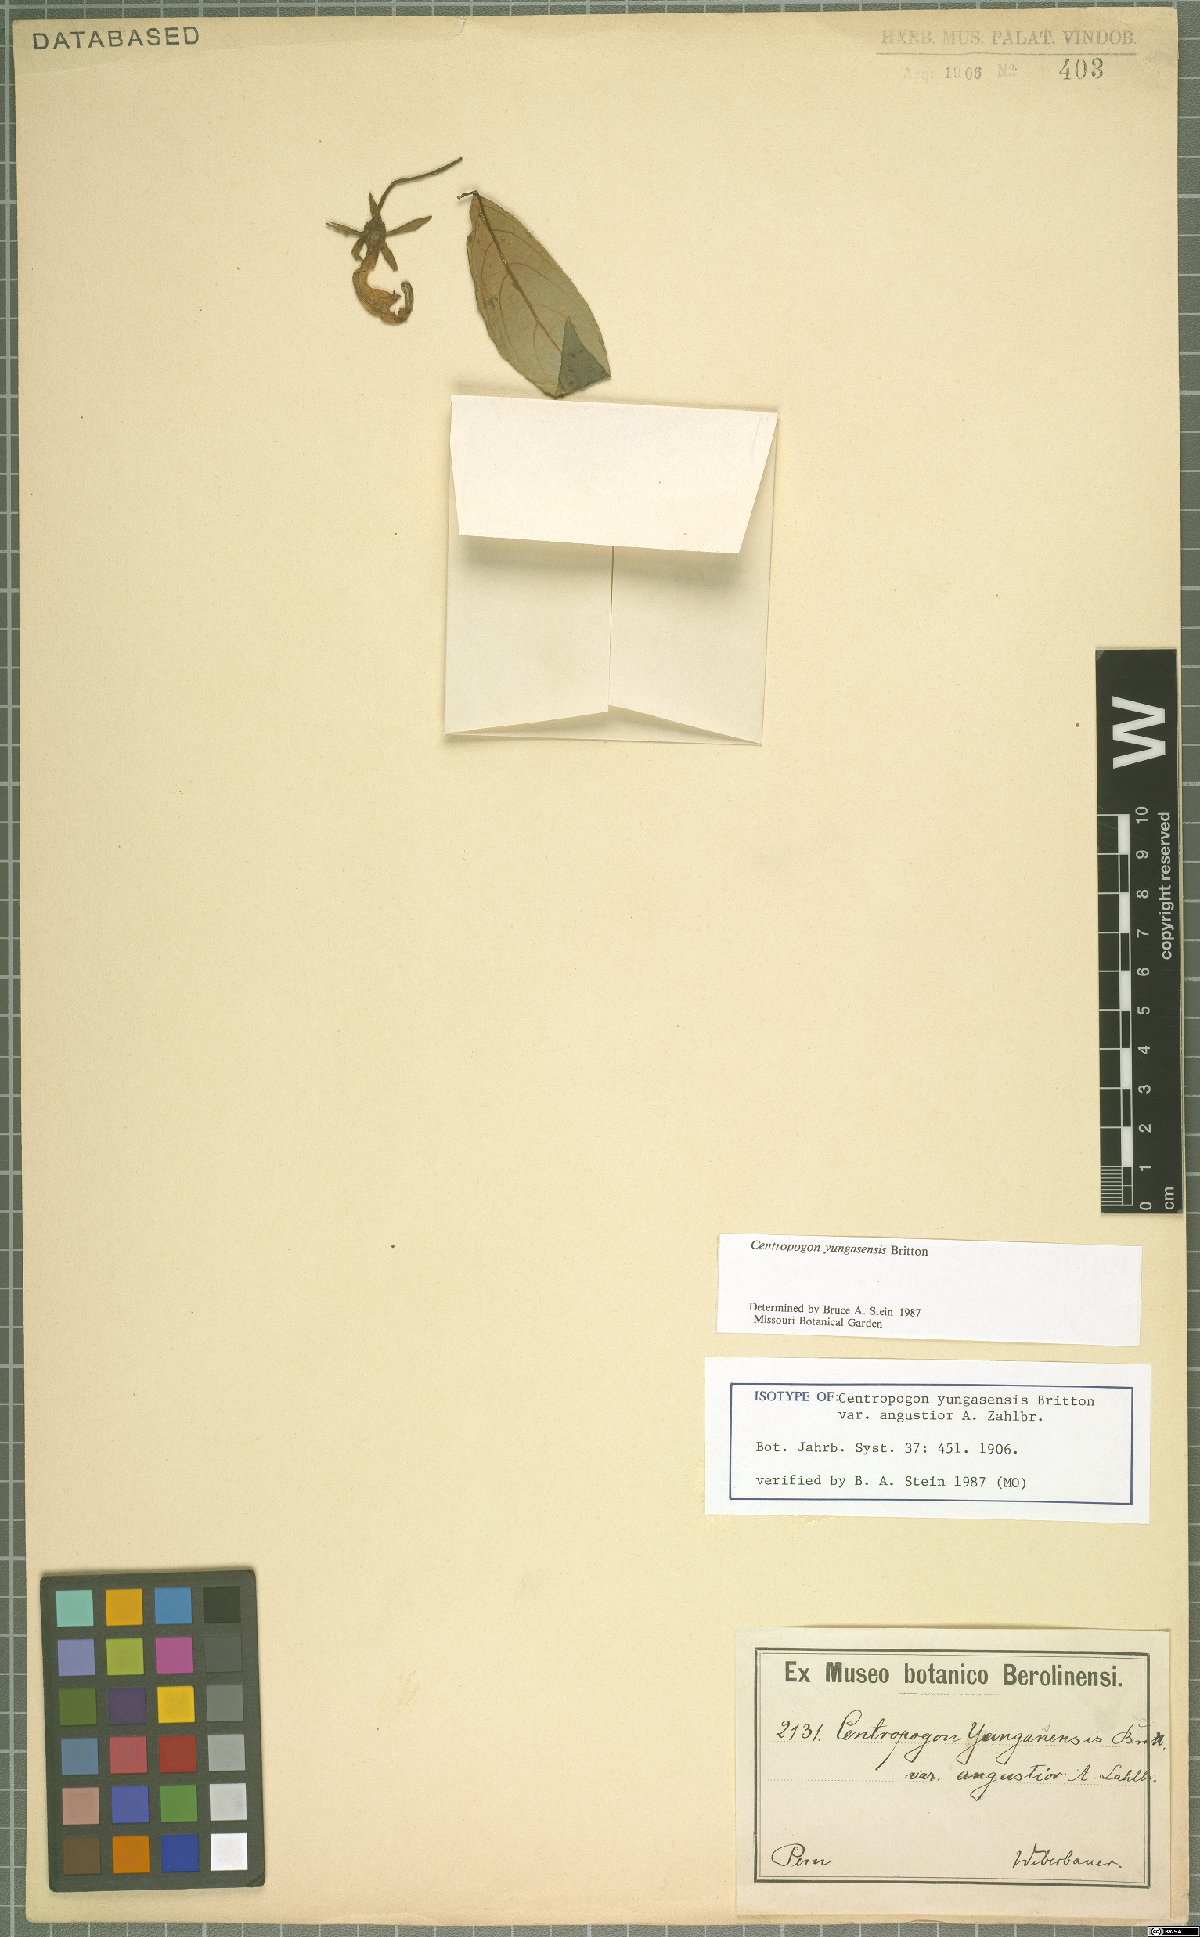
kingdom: Plantae
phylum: Tracheophyta
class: Magnoliopsida
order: Asterales
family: Campanulaceae
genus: Centropogon
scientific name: Centropogon yungasensis
